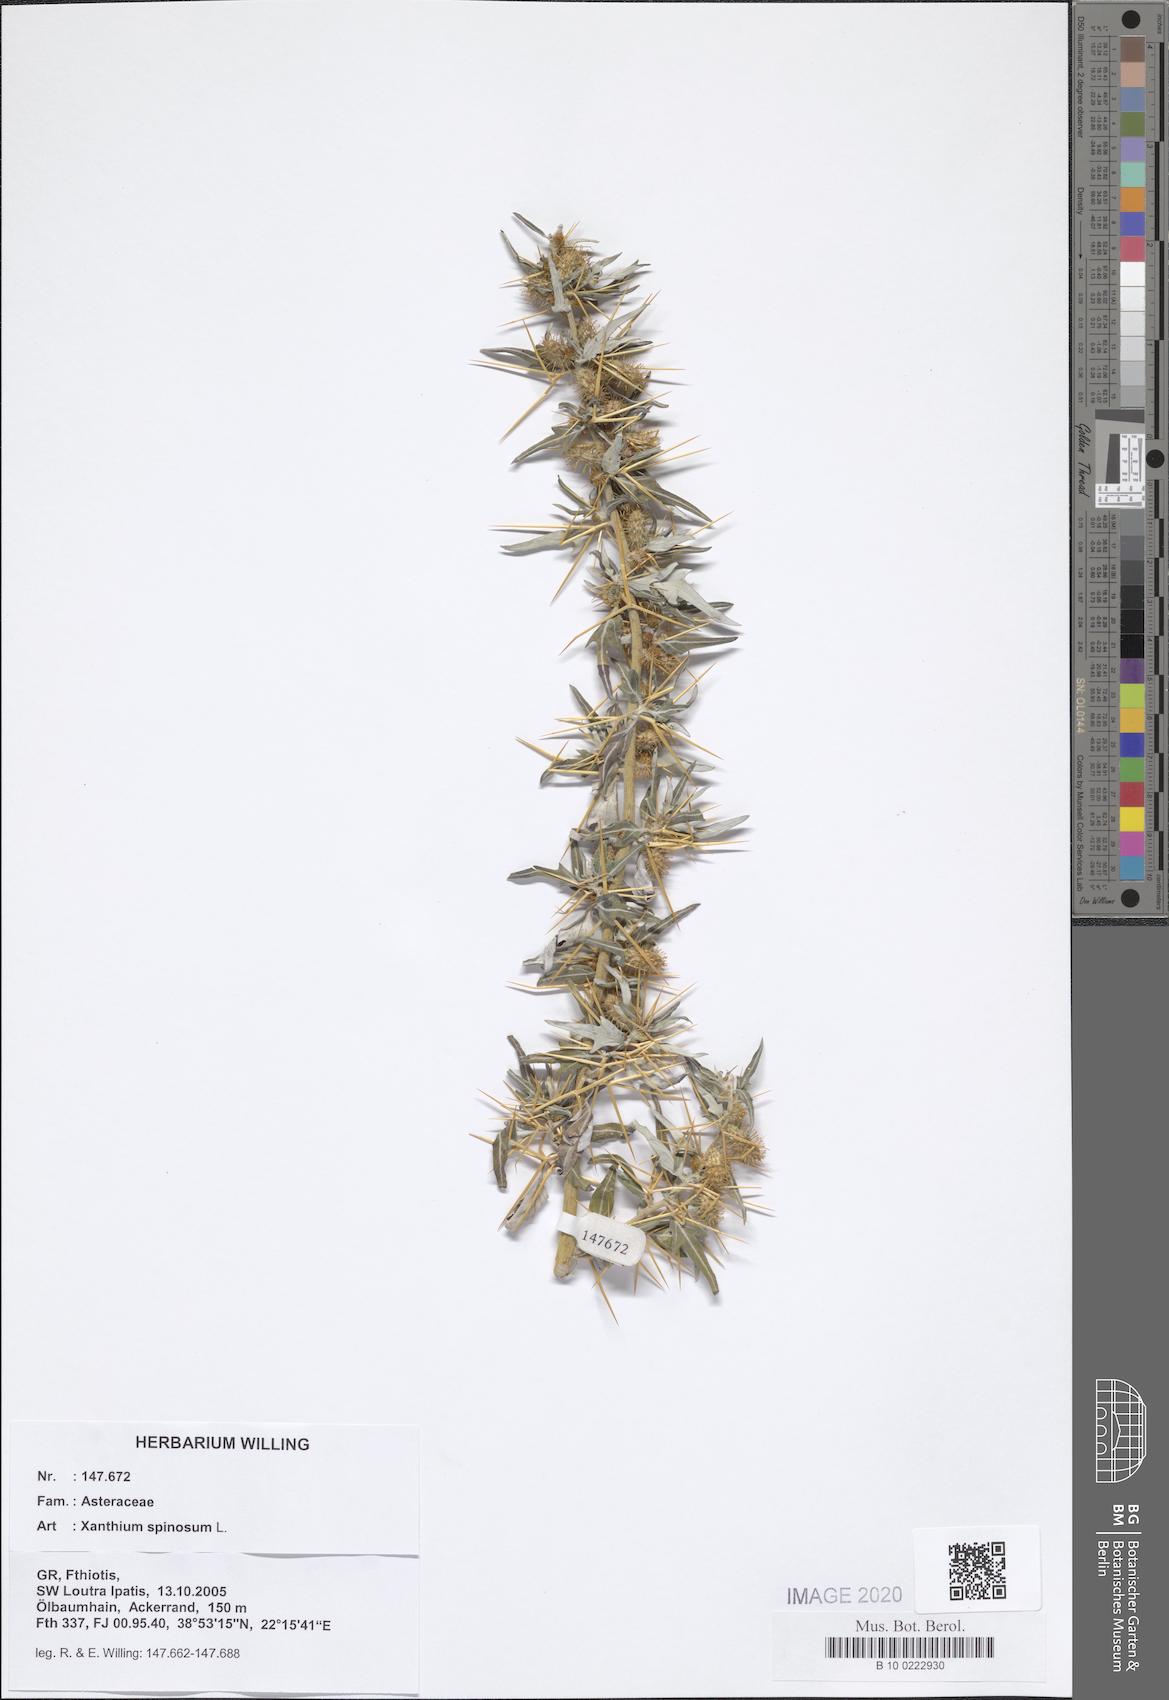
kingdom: Plantae
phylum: Tracheophyta
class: Magnoliopsida
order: Asterales
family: Asteraceae
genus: Xanthium
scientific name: Xanthium spinosum
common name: Spiny cocklebur
